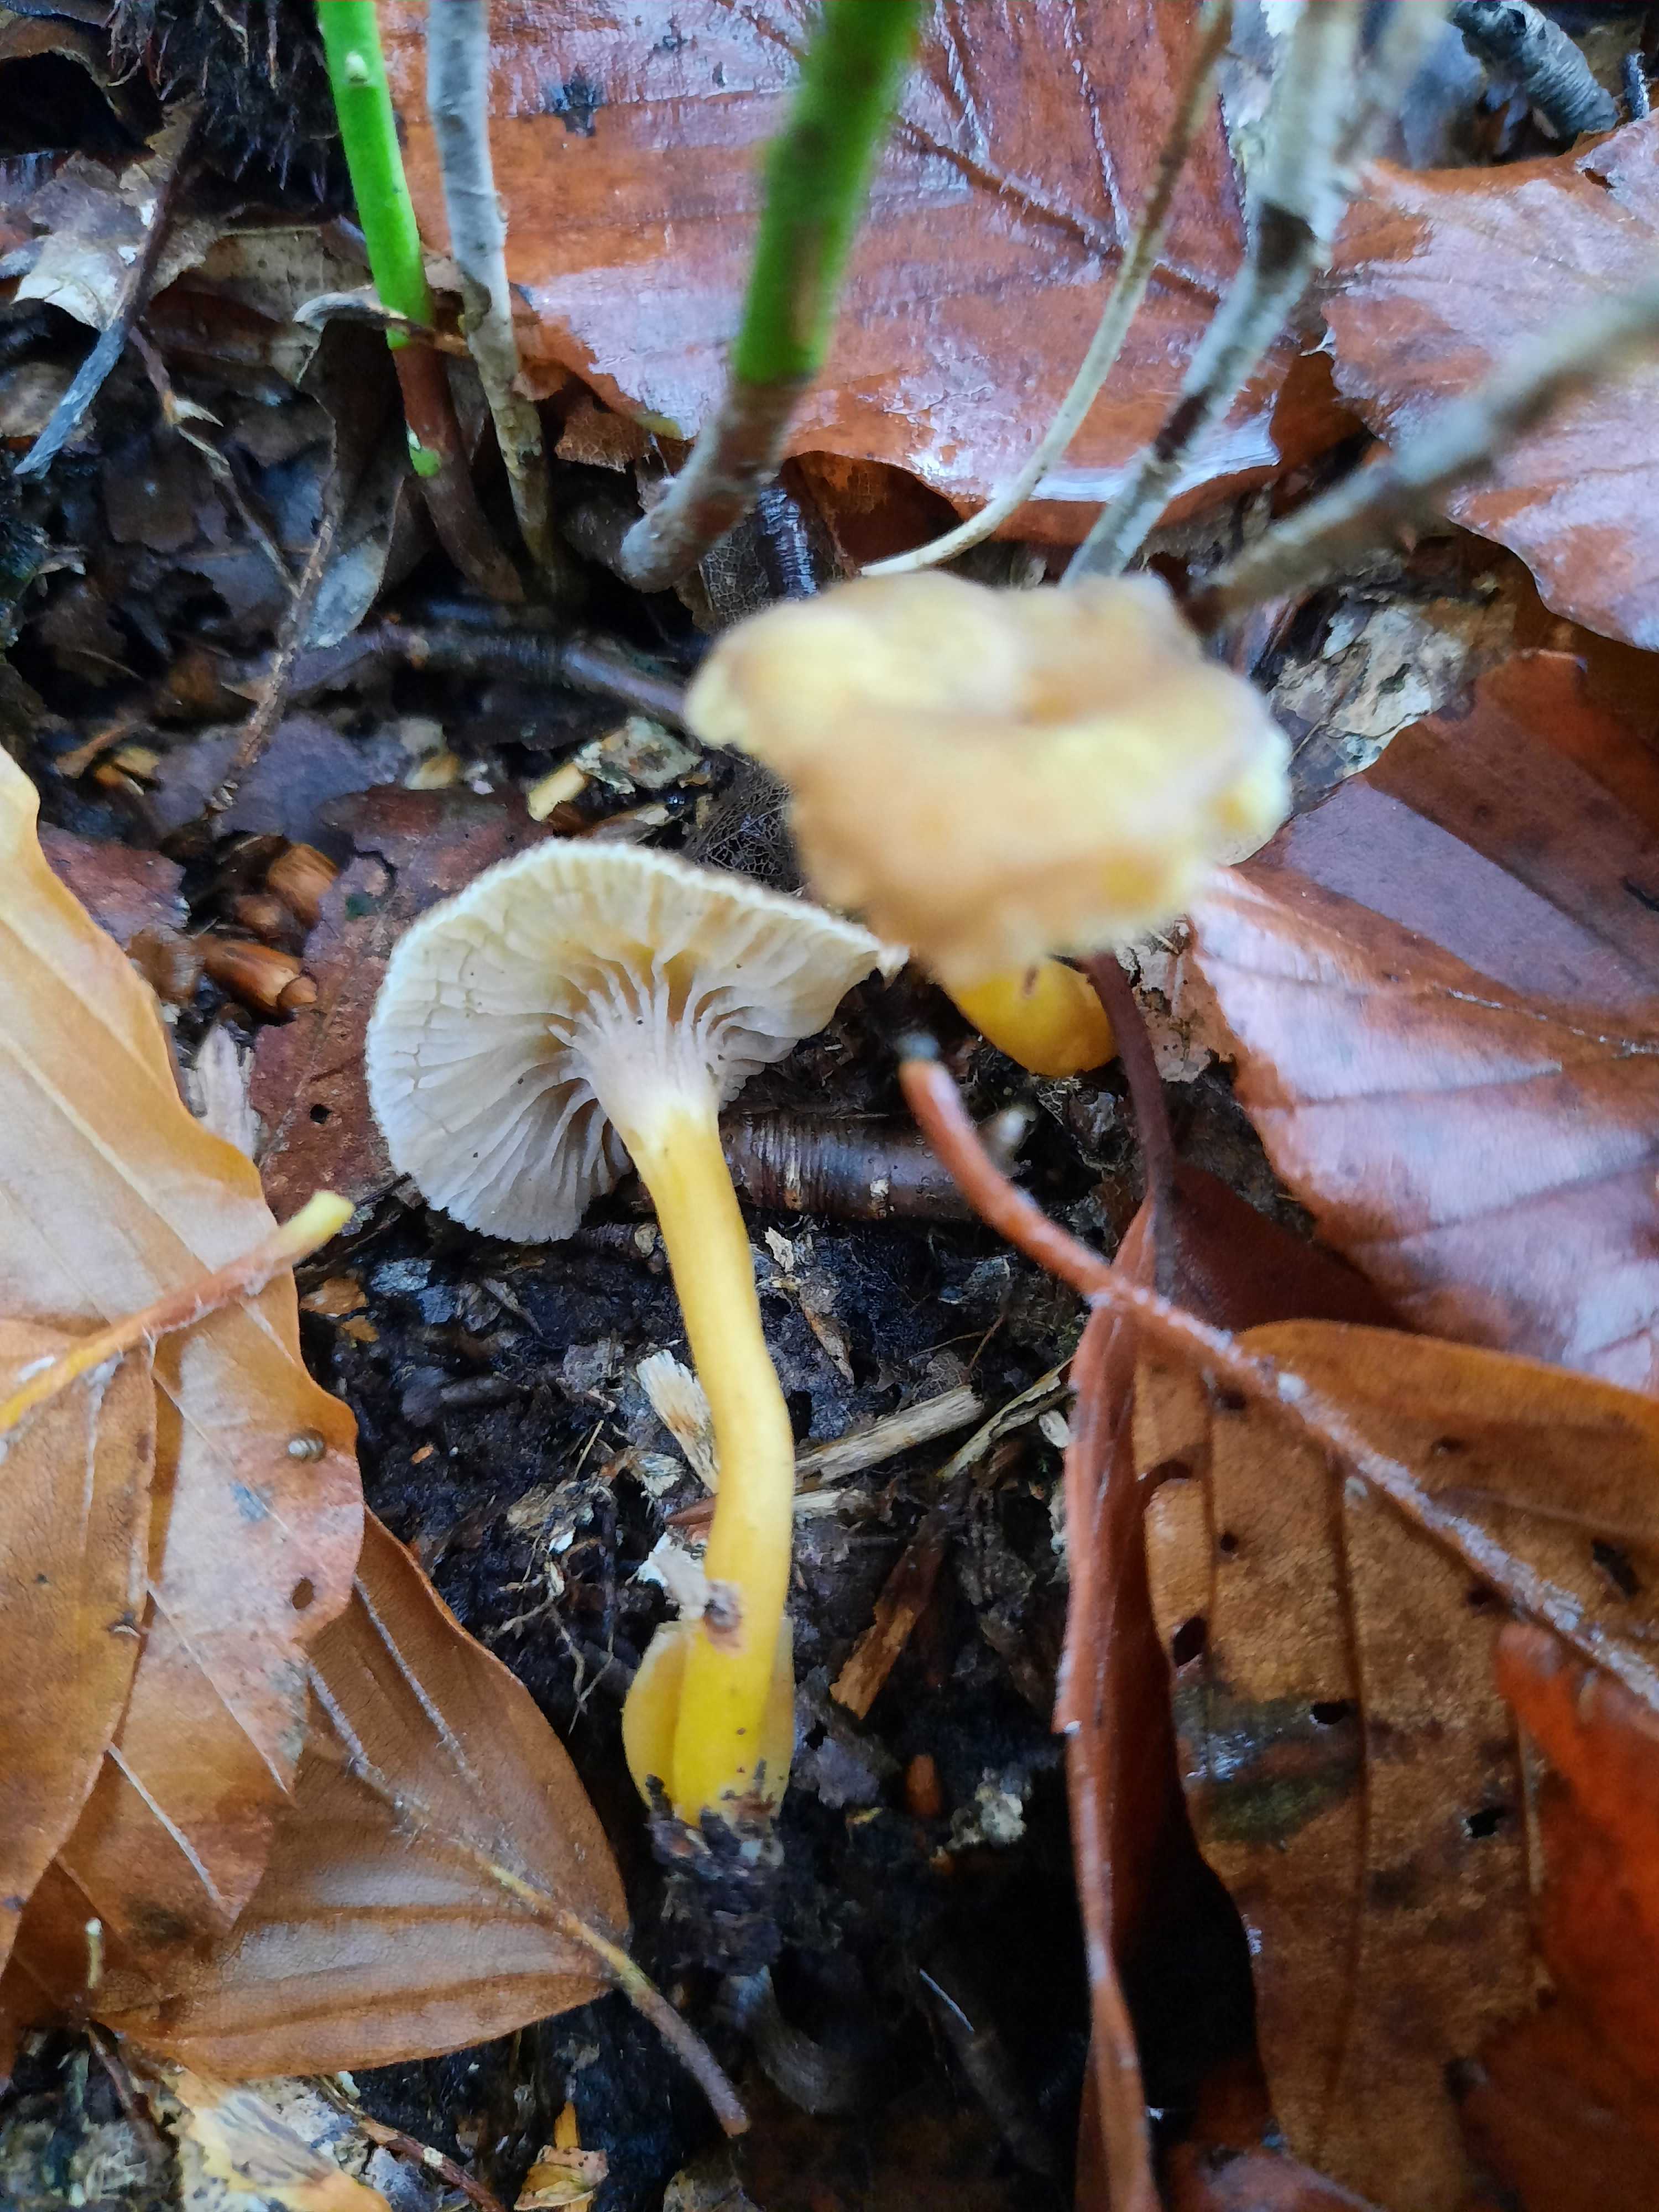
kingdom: Fungi
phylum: Basidiomycota
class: Agaricomycetes
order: Cantharellales
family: Hydnaceae
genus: Craterellus
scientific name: Craterellus tubaeformis
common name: tragt-kantarel
